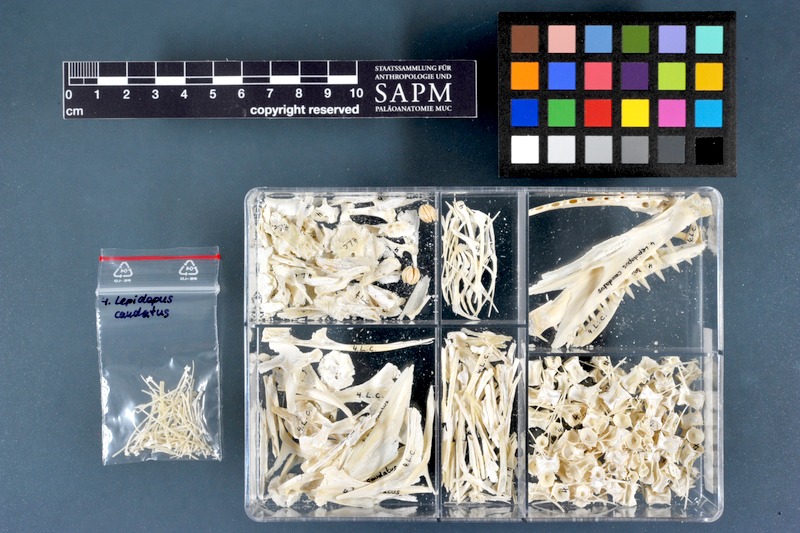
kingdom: Animalia
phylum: Chordata
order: Perciformes
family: Trichiuridae
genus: Lepidopus
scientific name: Lepidopus caudatus
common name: Silver scabbardfish
